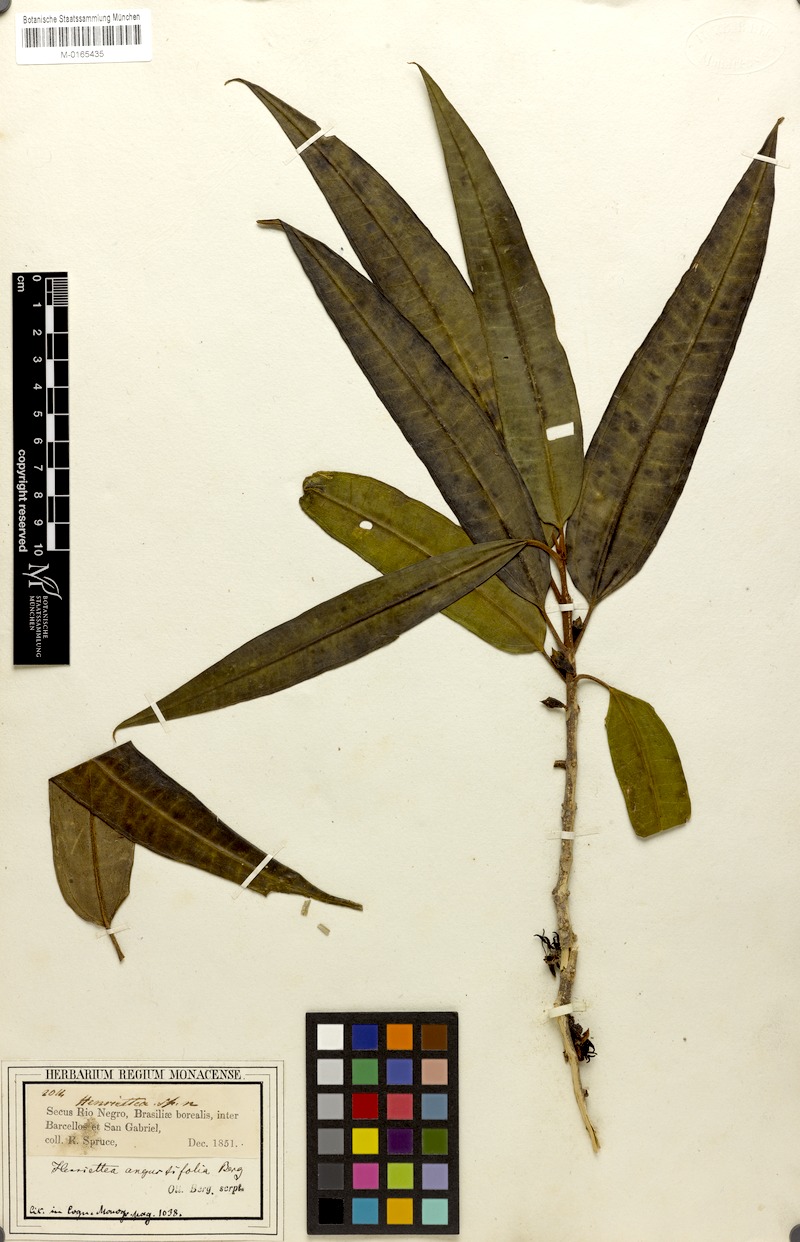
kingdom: Plantae
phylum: Tracheophyta
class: Magnoliopsida
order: Myrtales
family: Melastomataceae
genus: Henriettea
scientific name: Henriettea angustifolia
